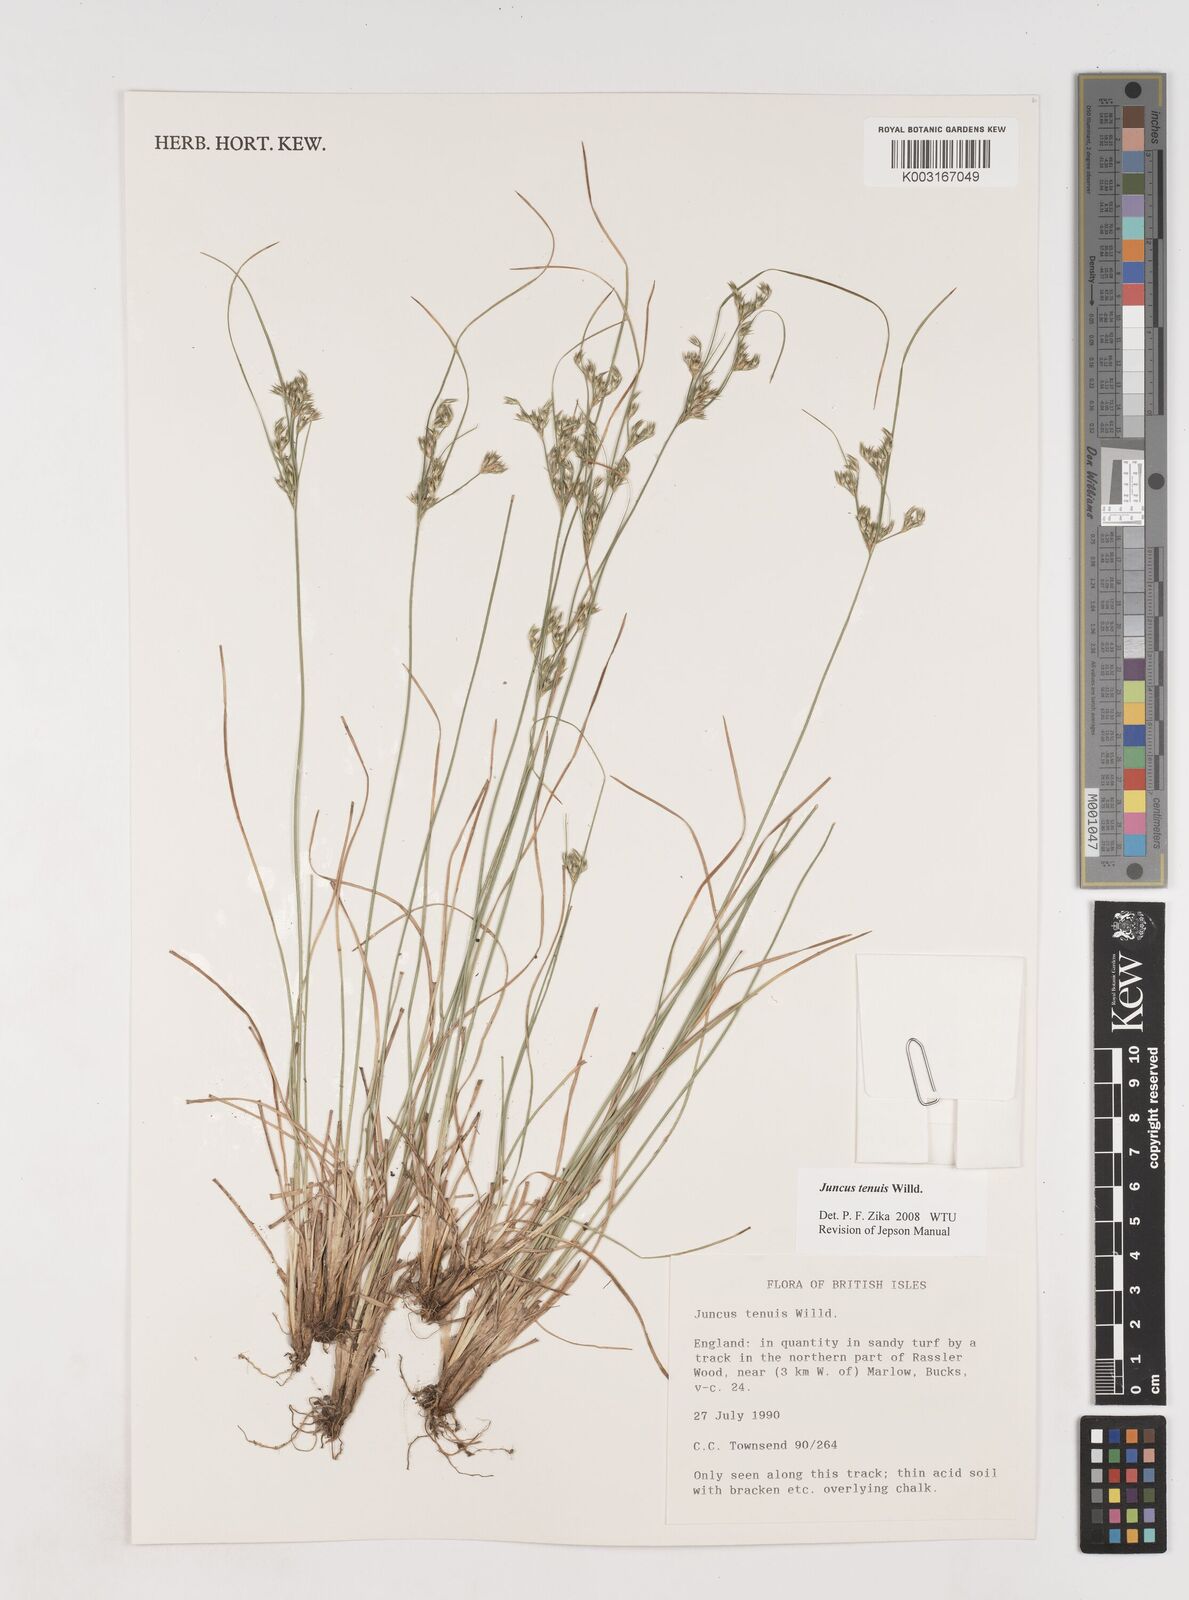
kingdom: Plantae
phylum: Tracheophyta
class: Liliopsida
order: Poales
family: Juncaceae
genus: Juncus
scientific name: Juncus tenuis
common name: Slender rush
